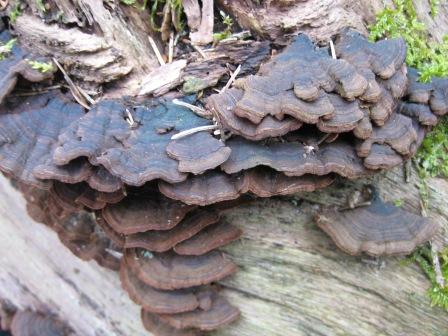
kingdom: Fungi
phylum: Basidiomycota
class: Agaricomycetes
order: Hymenochaetales
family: Hymenochaetaceae
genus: Hymenochaete
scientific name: Hymenochaete rubiginosa
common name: stiv ruslædersvamp
